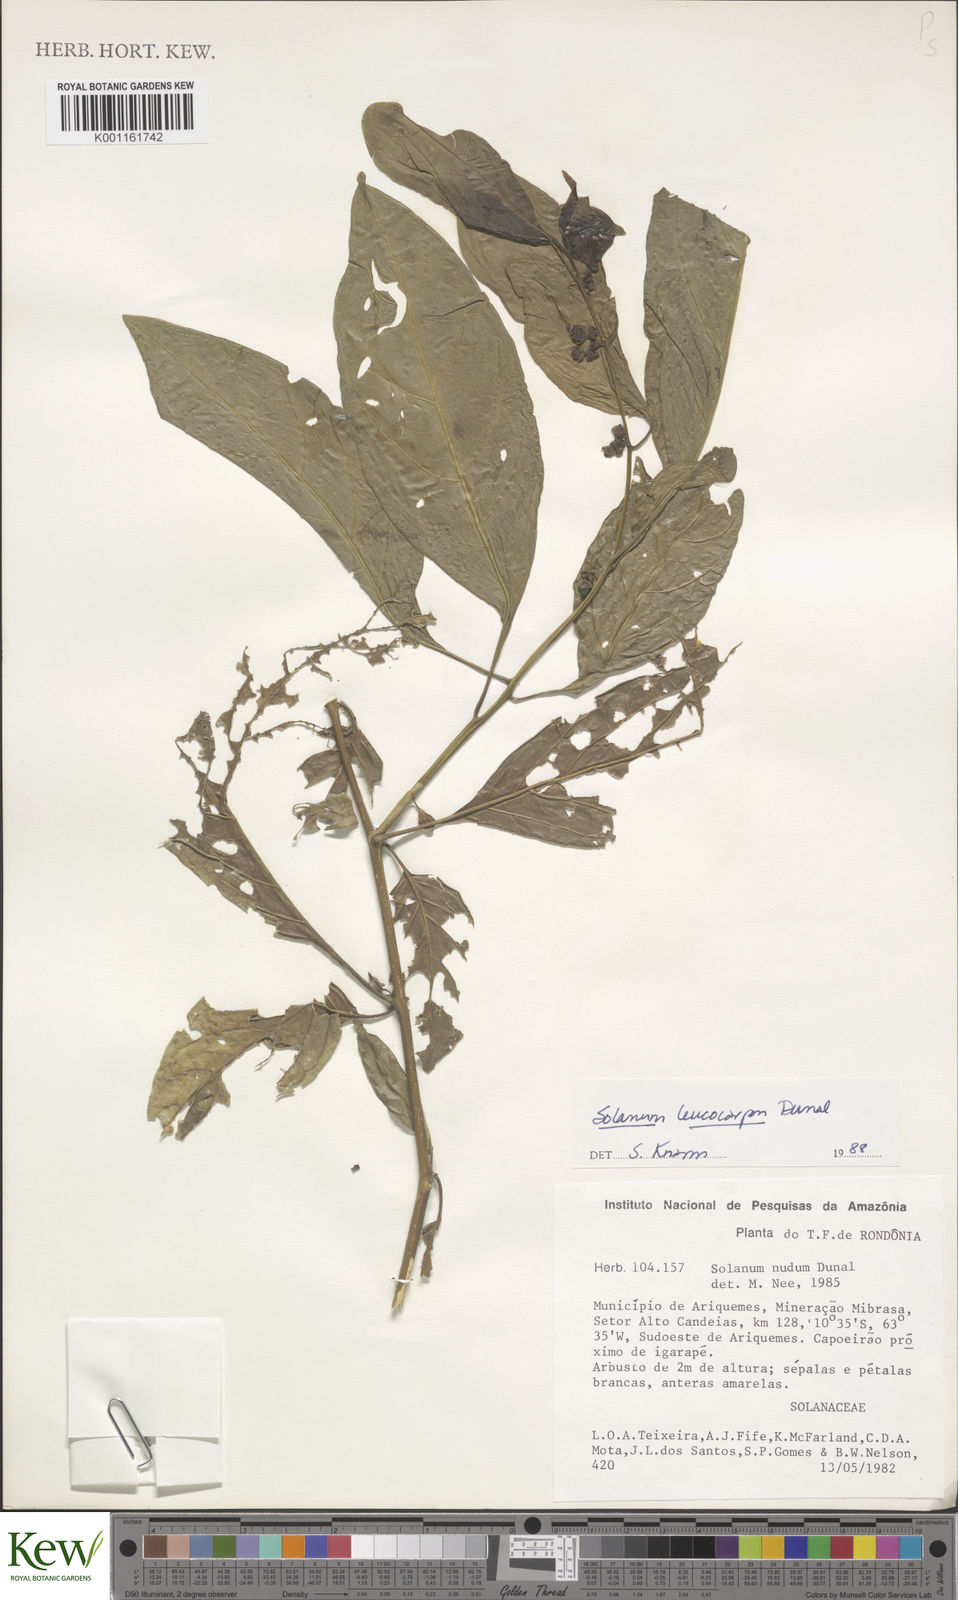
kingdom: Plantae
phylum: Tracheophyta
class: Magnoliopsida
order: Solanales
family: Solanaceae
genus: Solanum
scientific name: Solanum leucocarpon
